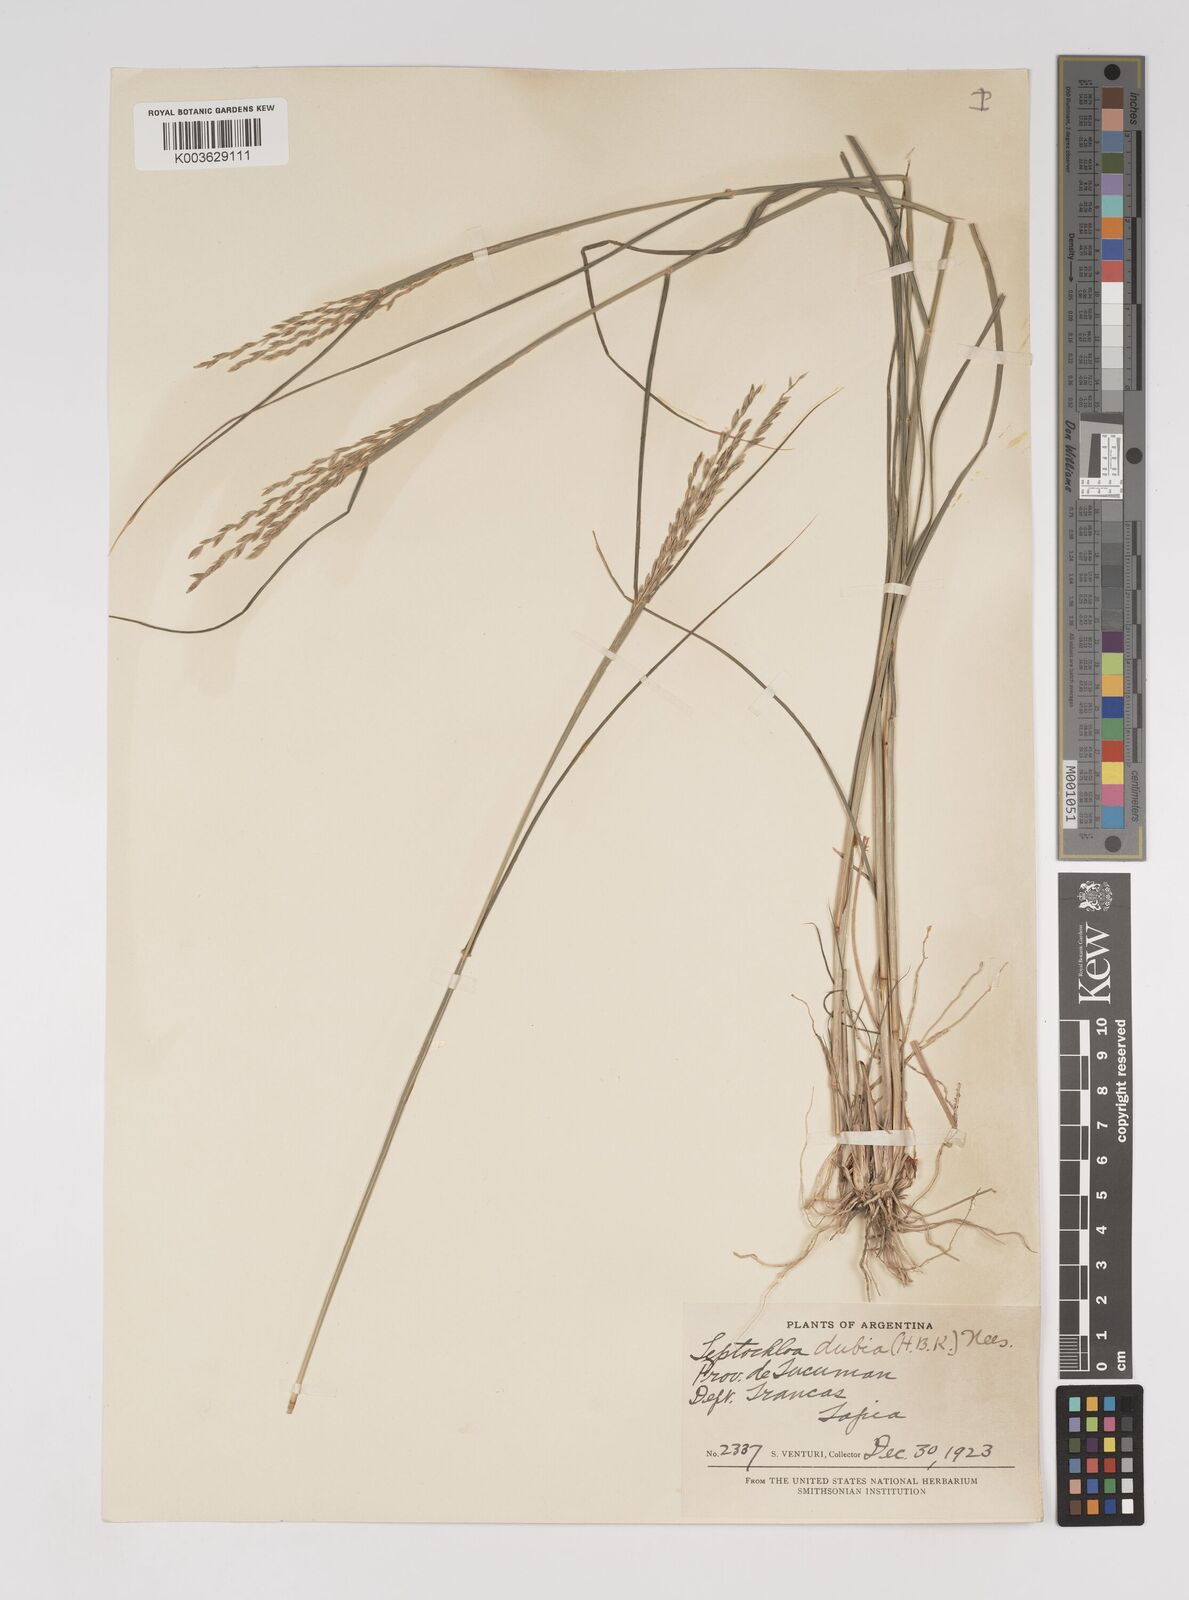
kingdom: Plantae
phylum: Tracheophyta
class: Liliopsida
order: Poales
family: Poaceae
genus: Disakisperma
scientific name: Disakisperma dubium
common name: Green sprangletop
